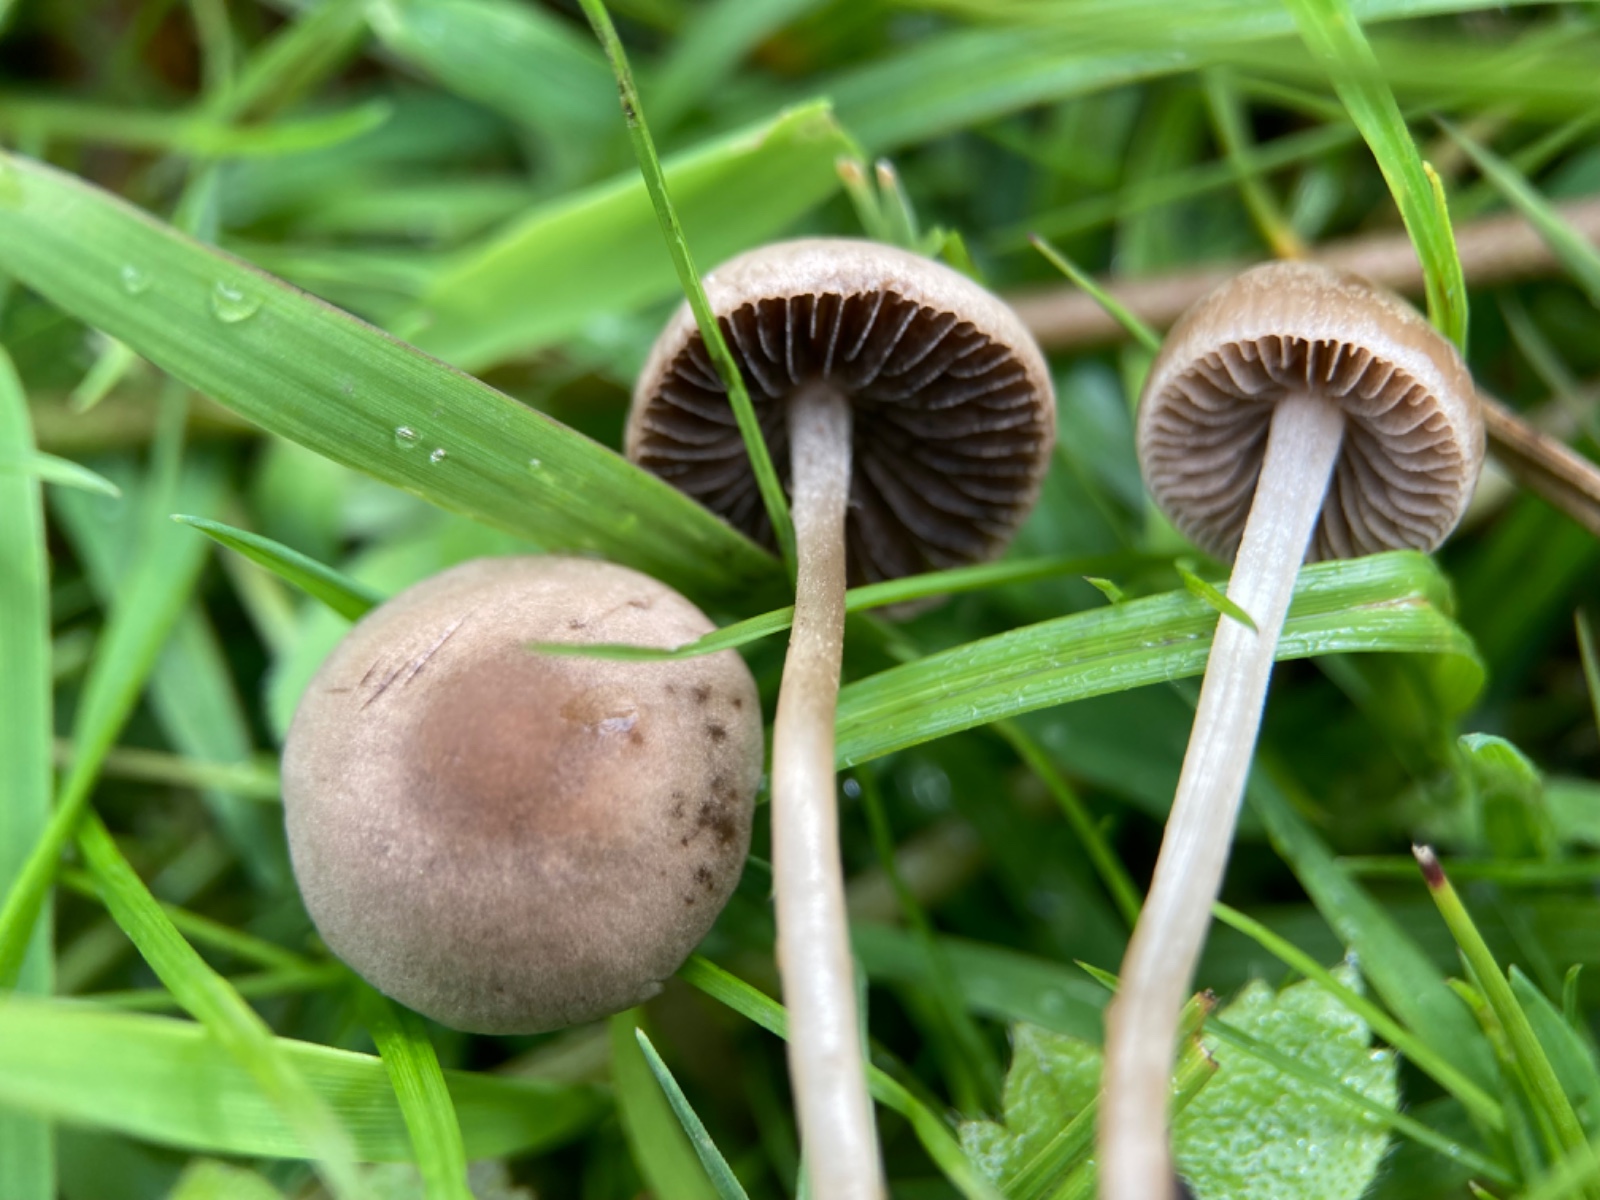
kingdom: Fungi
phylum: Basidiomycota
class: Agaricomycetes
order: Agaricales
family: Bolbitiaceae
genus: Panaeolina
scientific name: Panaeolina foenisecii
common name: høslætsvamp
